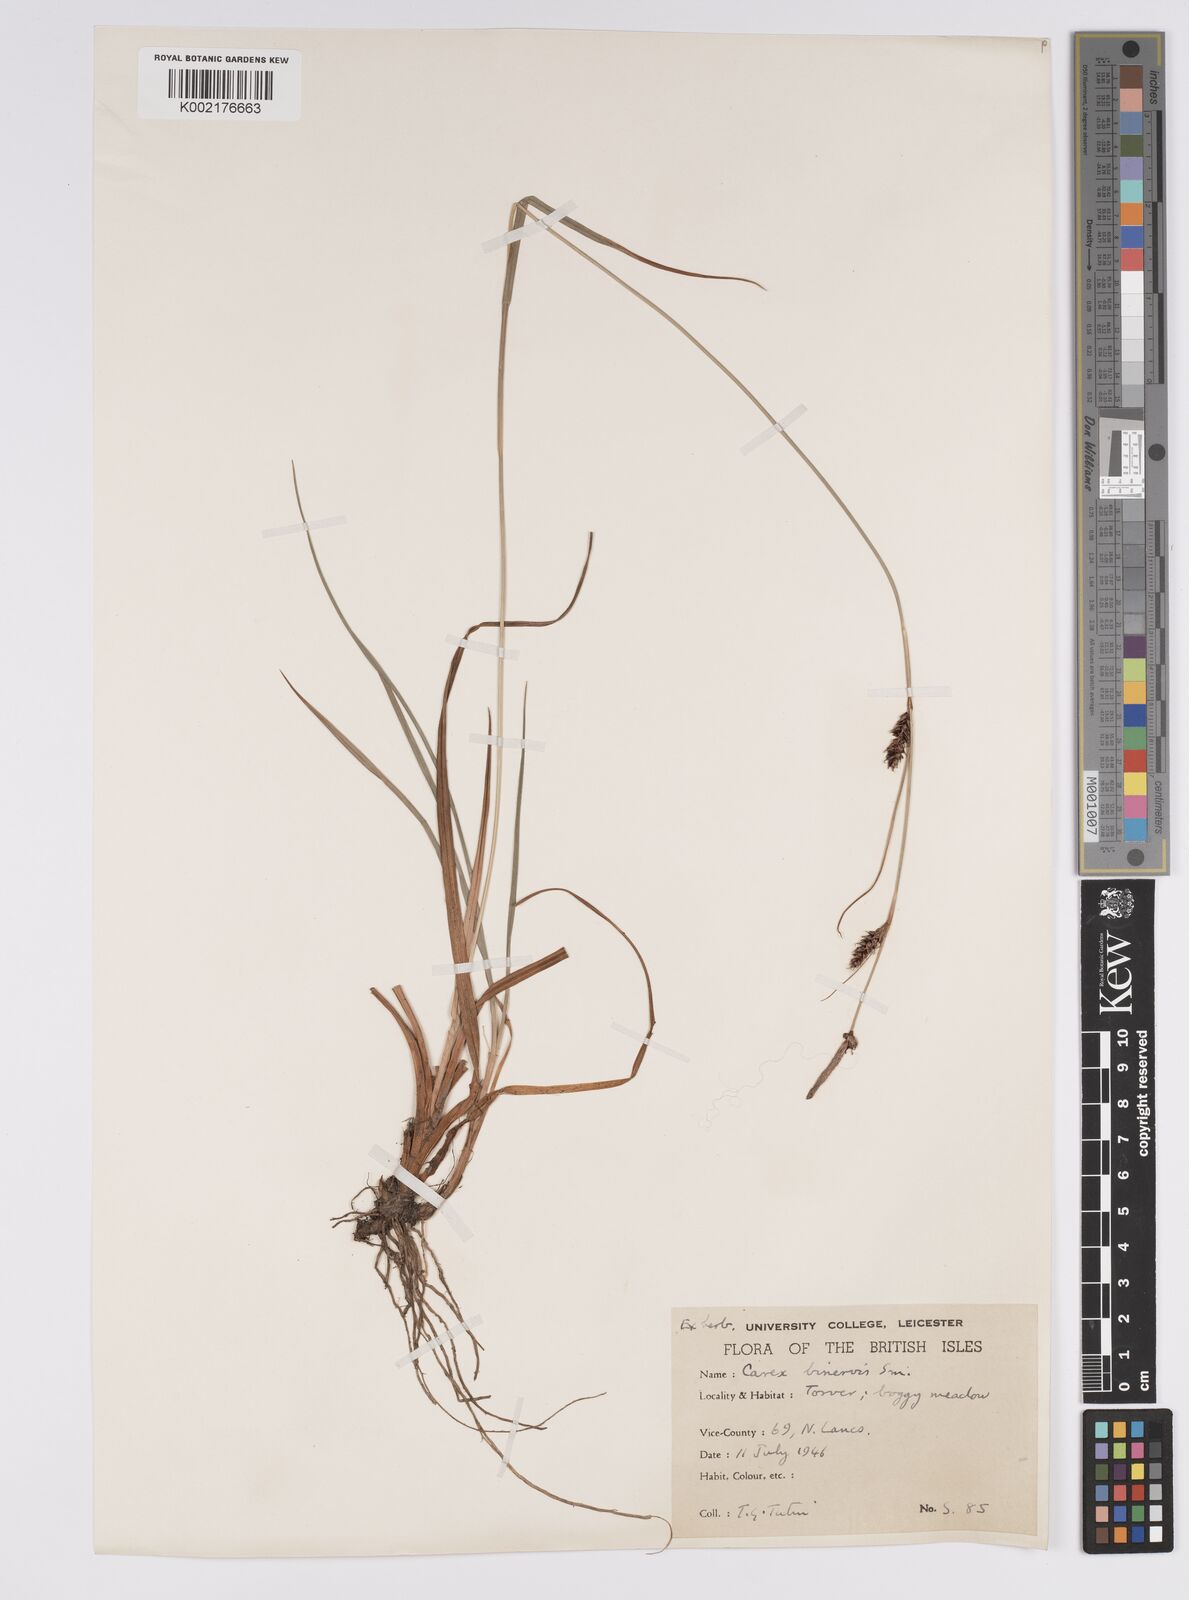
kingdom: Plantae
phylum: Tracheophyta
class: Liliopsida
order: Poales
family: Cyperaceae
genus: Carex
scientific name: Carex binervis
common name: Green-ribbed sedge
